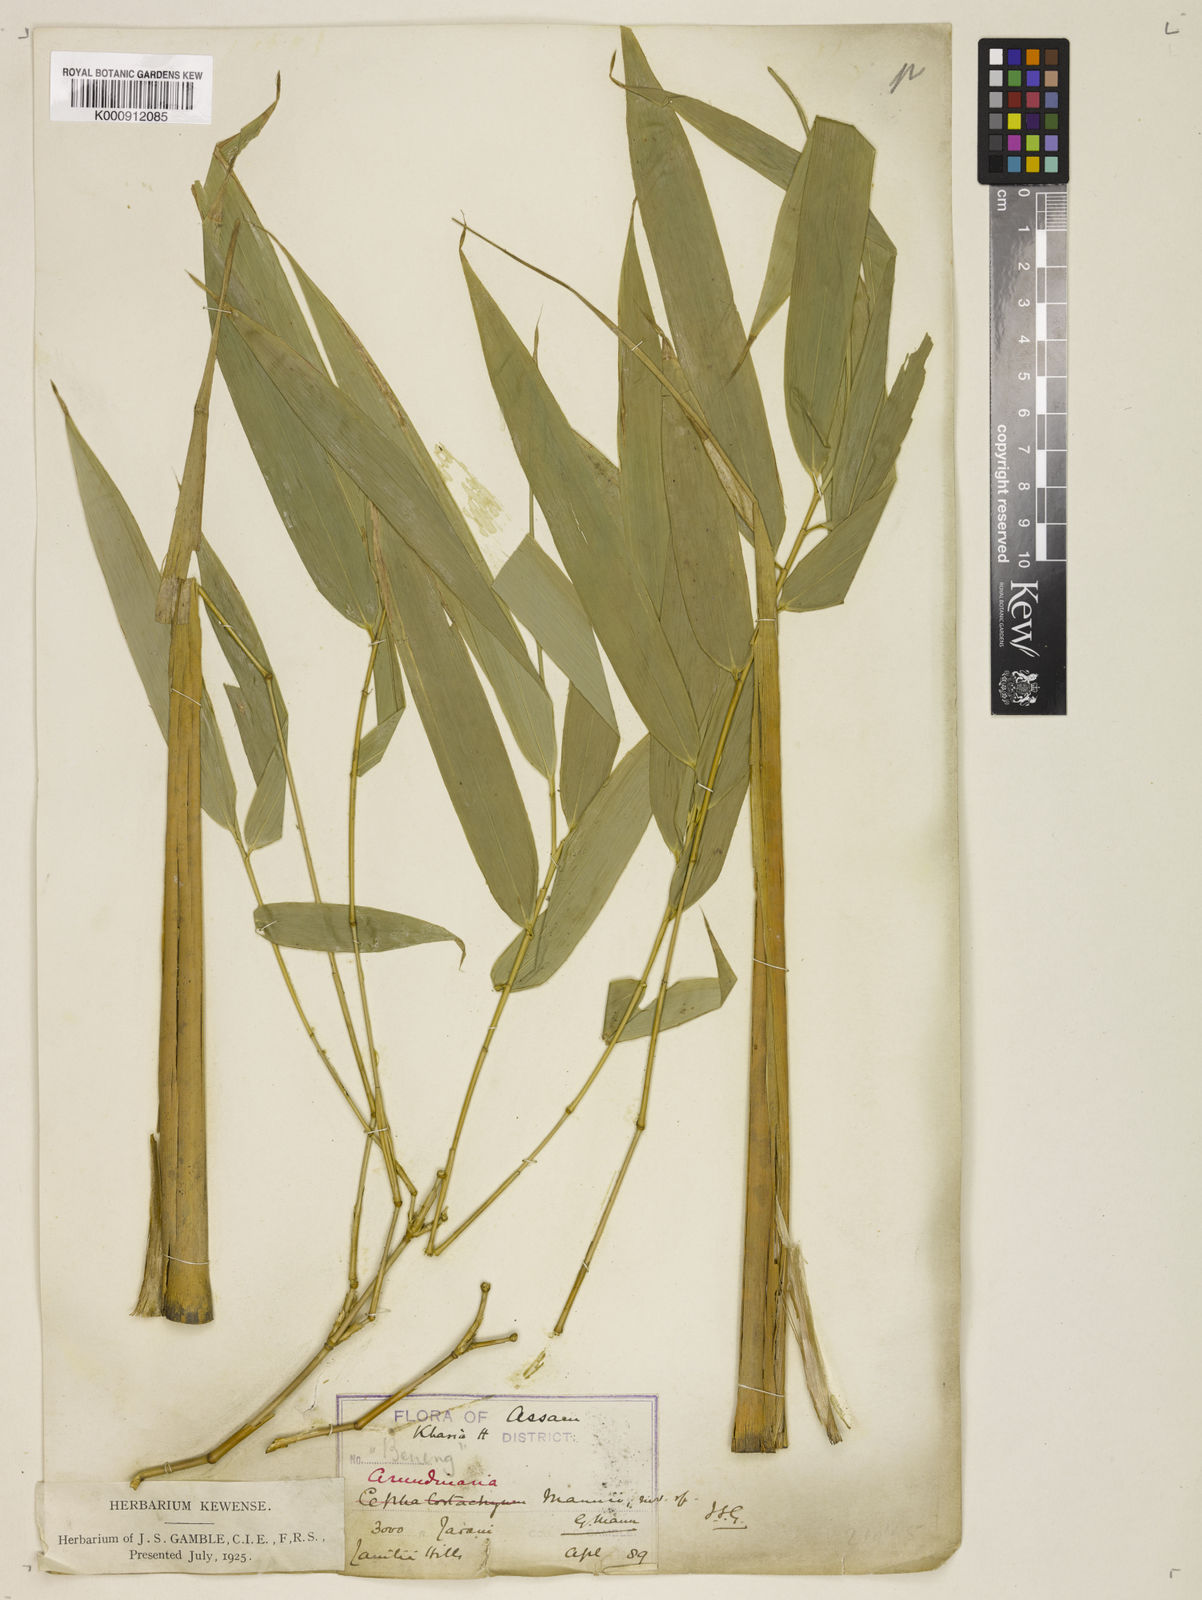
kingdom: Plantae
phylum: Tracheophyta
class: Liliopsida
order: Poales
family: Poaceae
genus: Cephalostachyum
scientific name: Cephalostachyum mannii
